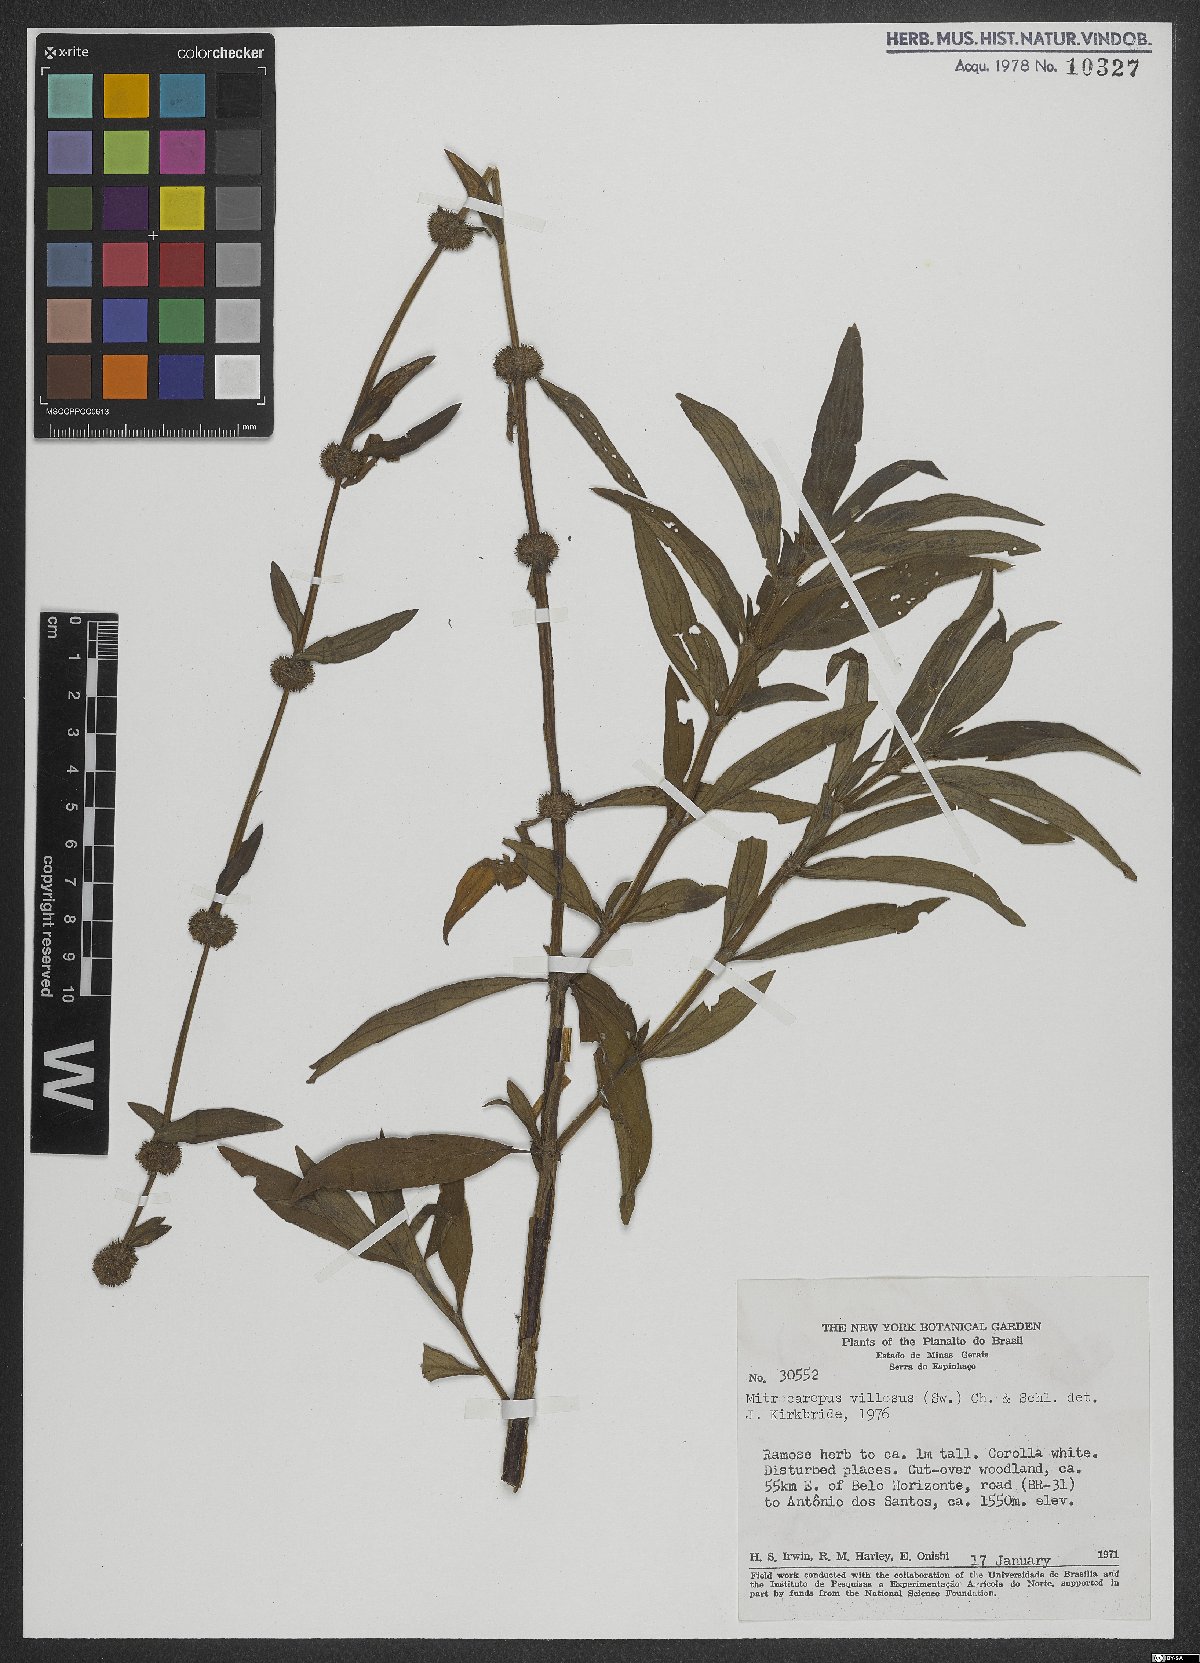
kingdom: Plantae
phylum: Tracheophyta
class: Magnoliopsida
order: Gentianales
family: Rubiaceae
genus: Mitracarpus
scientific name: Mitracarpus hirtus
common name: Tropical girdlepod
